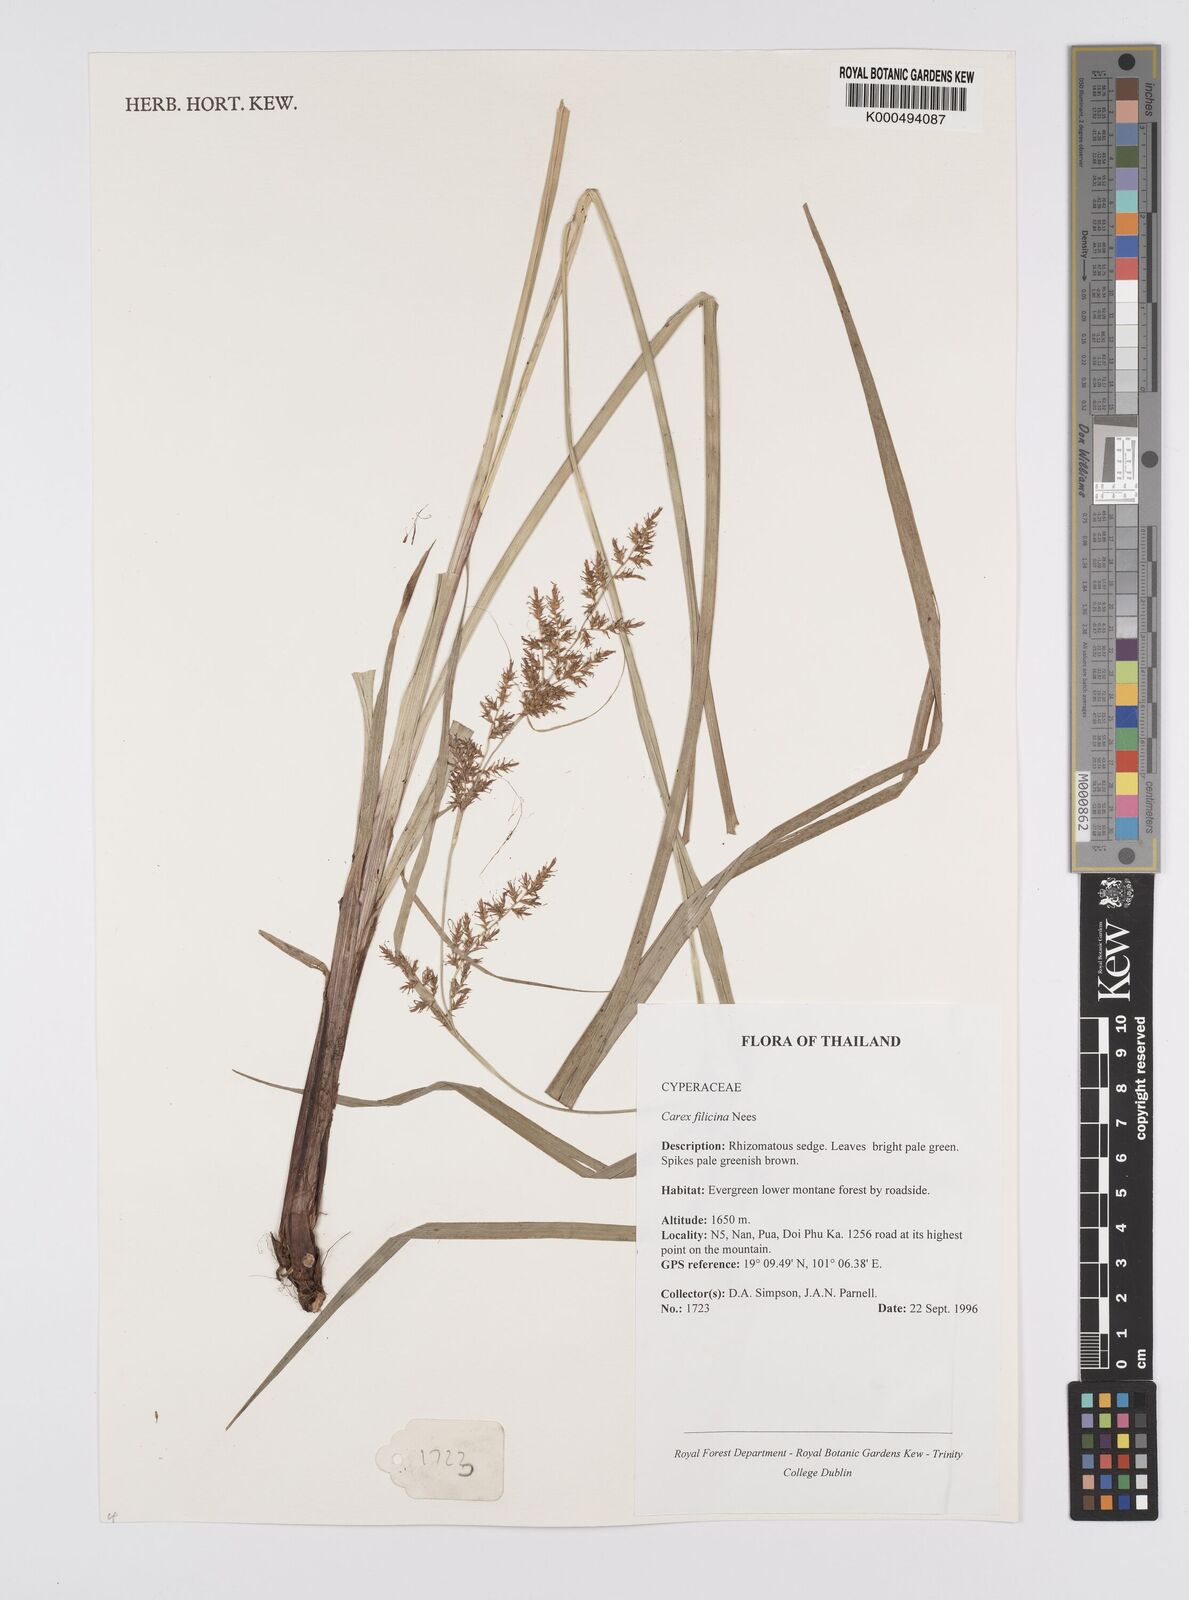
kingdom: Plantae
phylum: Tracheophyta
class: Liliopsida
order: Poales
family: Cyperaceae
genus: Carex
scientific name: Carex baccans
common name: Crimson seeded sedge
